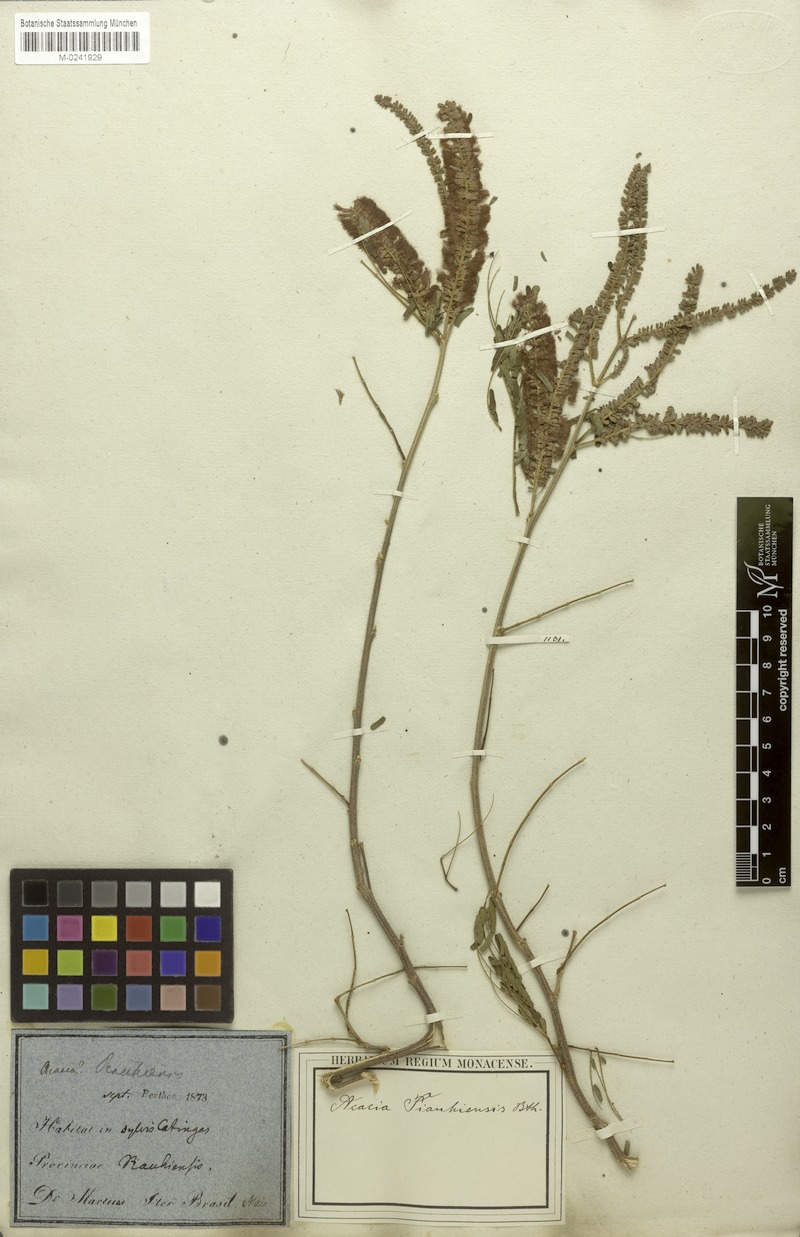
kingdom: Plantae
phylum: Tracheophyta
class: Magnoliopsida
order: Fabales
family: Fabaceae
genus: Senegalia
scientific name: Senegalia piauhiensis
